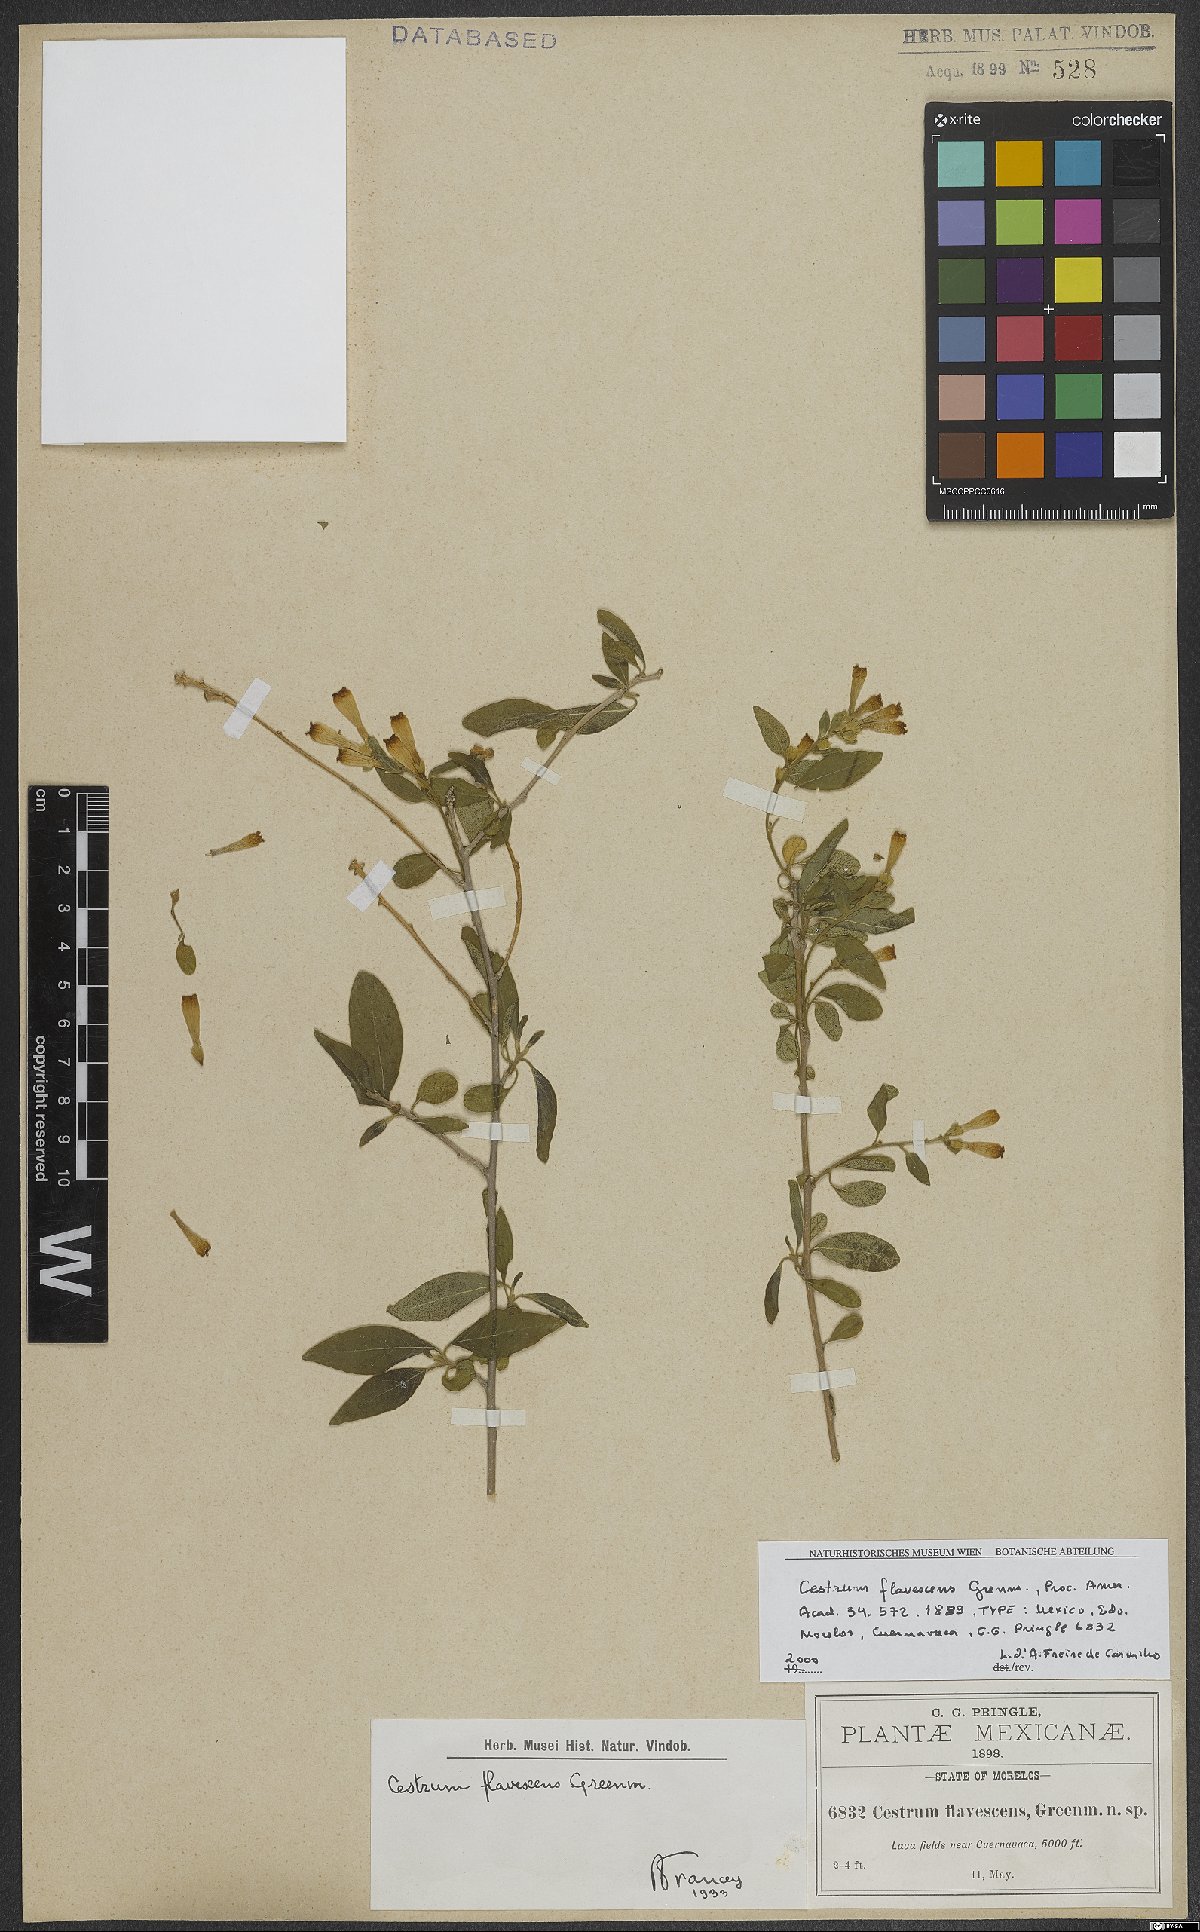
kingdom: Plantae
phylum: Tracheophyta
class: Magnoliopsida
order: Solanales
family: Solanaceae
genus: Cestrum
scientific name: Cestrum flavescens
